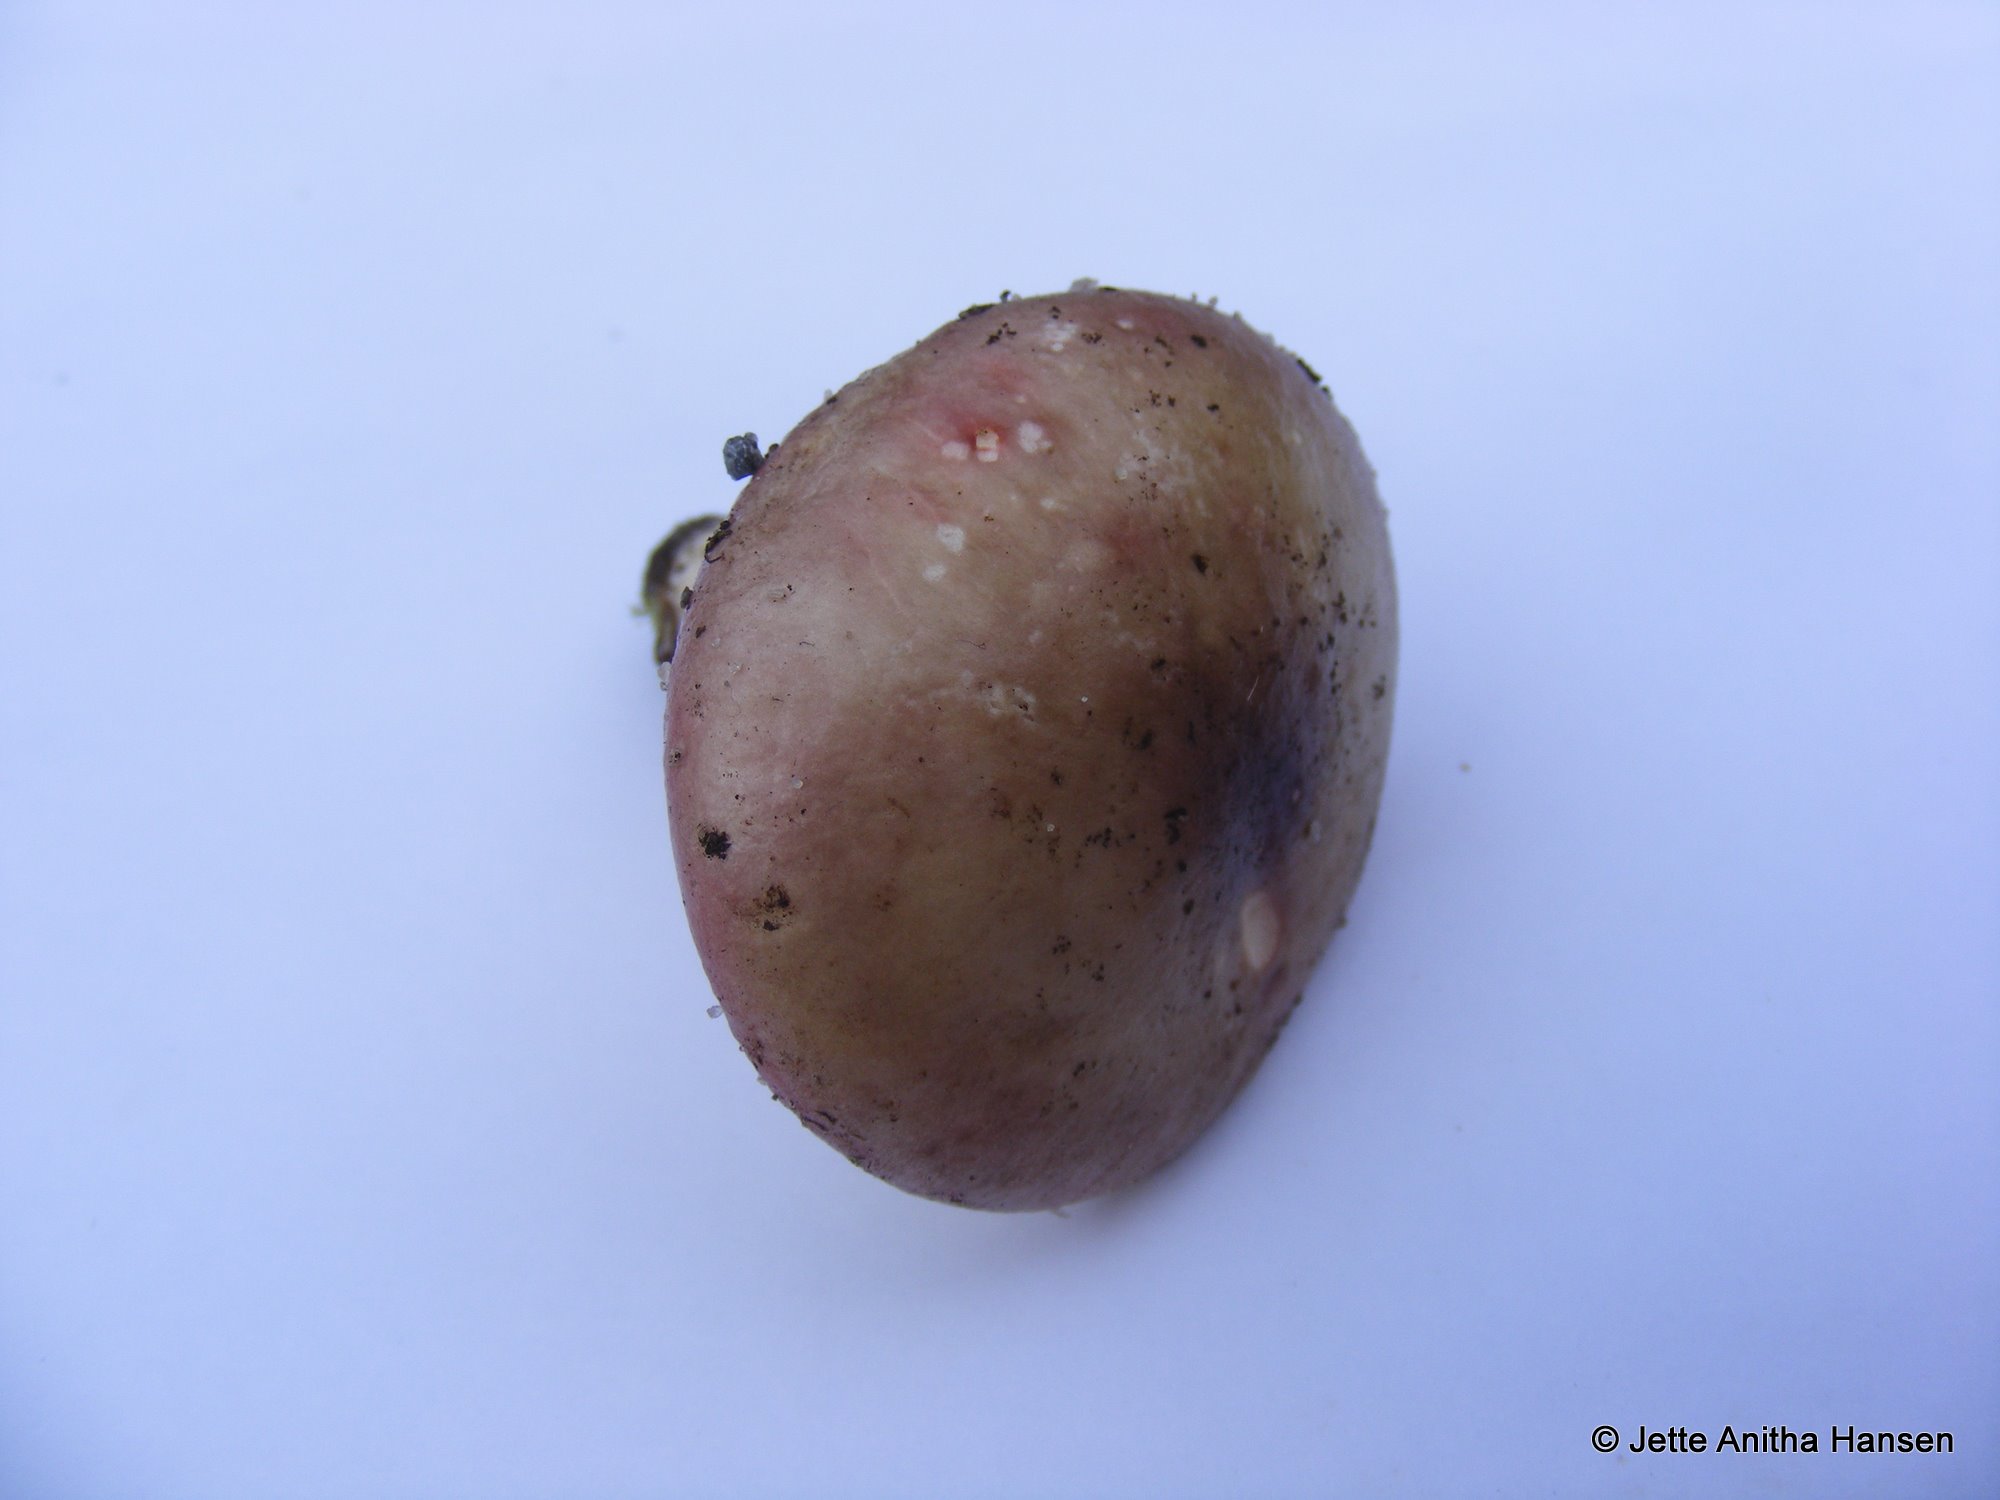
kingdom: Fungi
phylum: Basidiomycota
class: Agaricomycetes
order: Russulales
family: Russulaceae
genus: Russula
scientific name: Russula versicolor
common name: foranderlig skørhat
